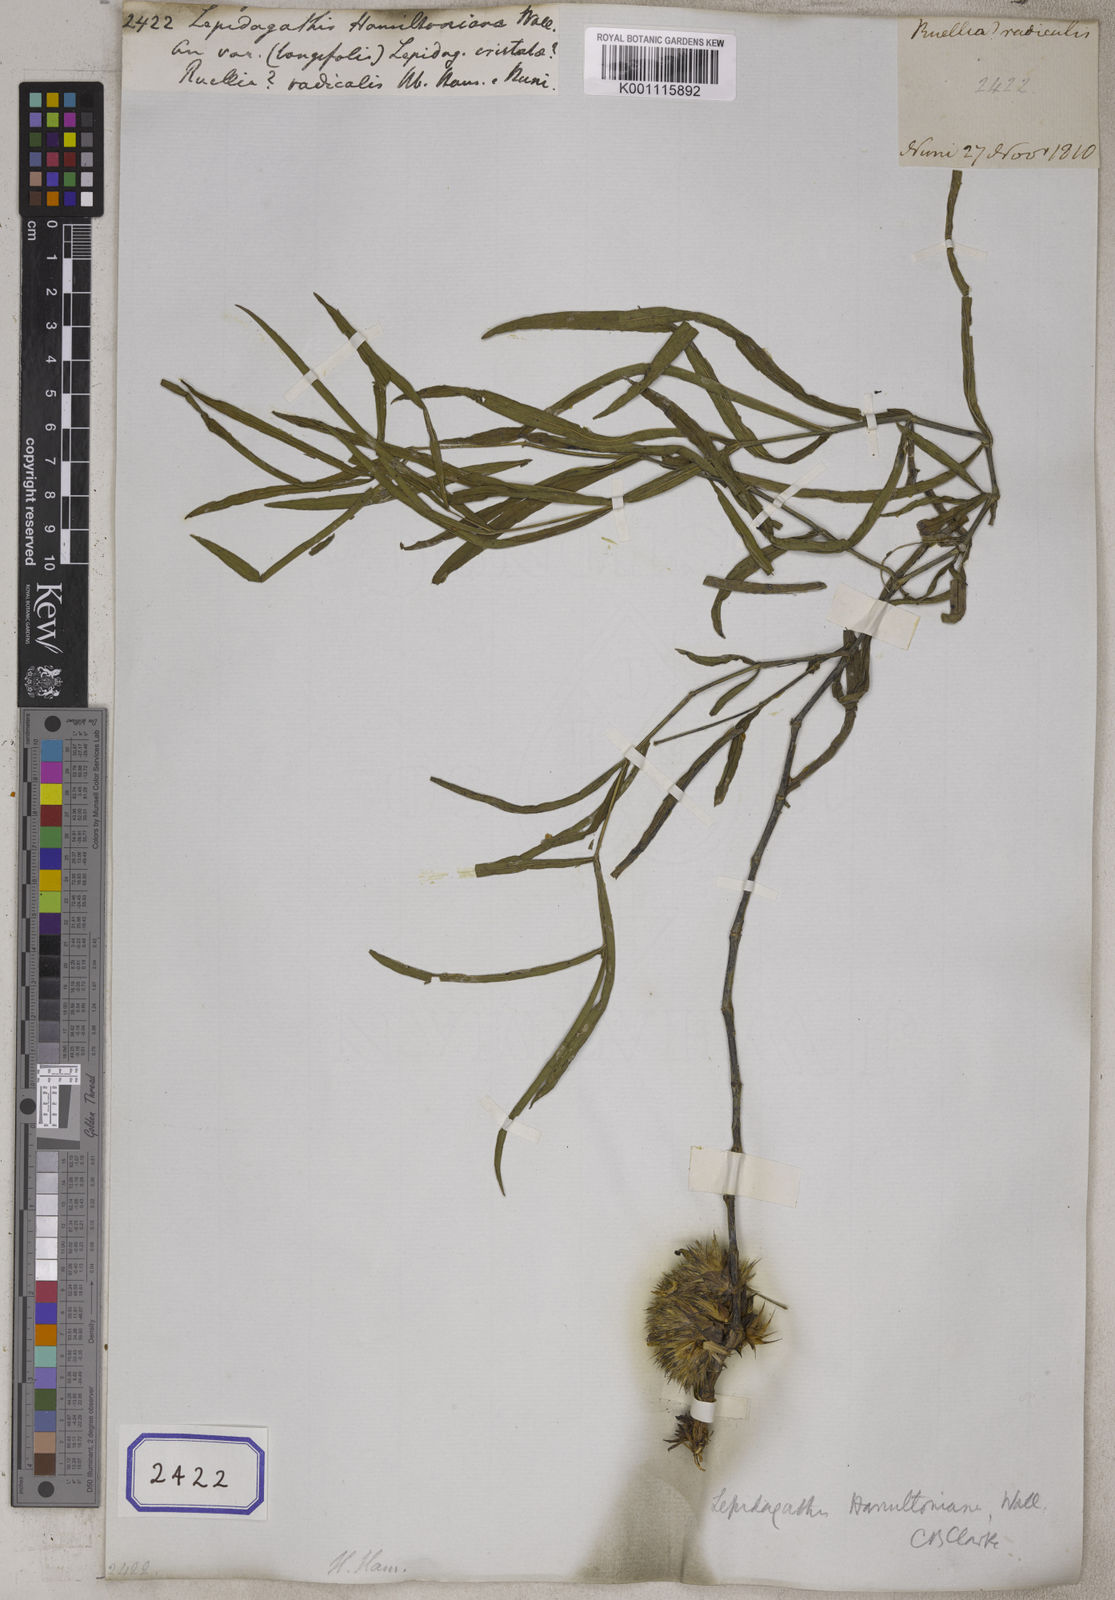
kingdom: Plantae
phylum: Tracheophyta
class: Magnoliopsida
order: Lamiales
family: Acanthaceae
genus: Lepidagathis
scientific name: Lepidagathis hamiltoniana
